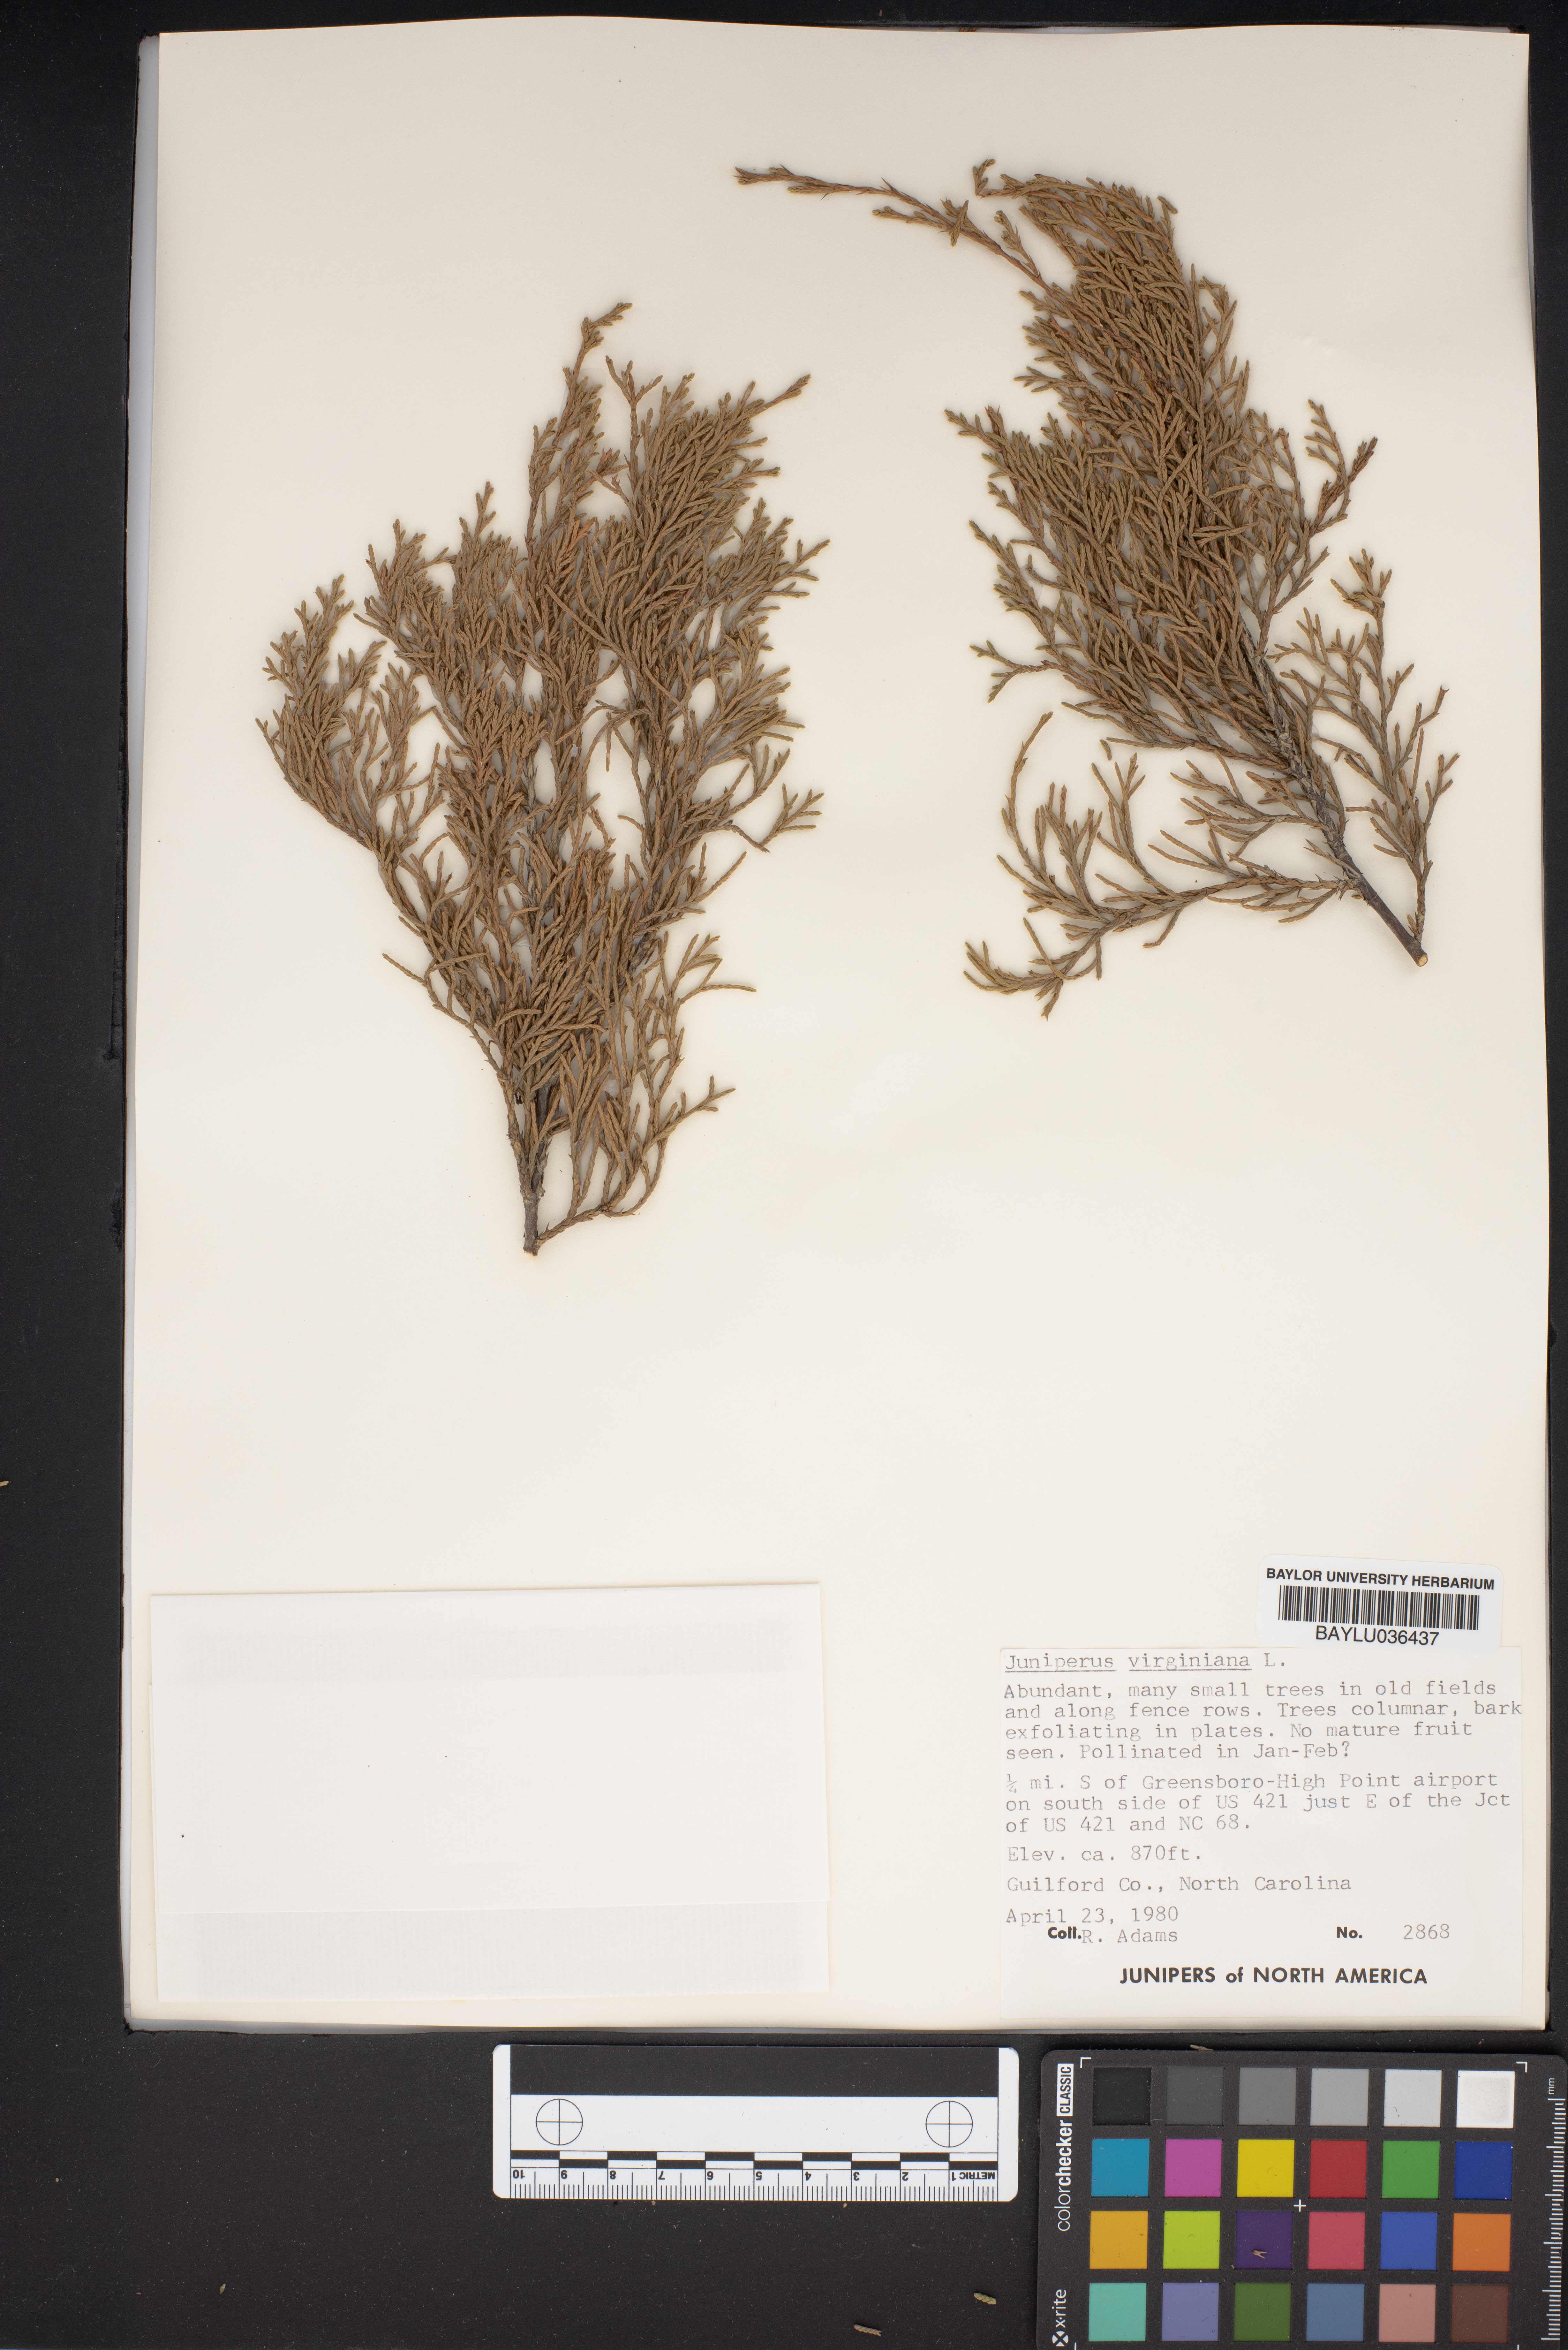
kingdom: Plantae
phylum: Tracheophyta
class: Pinopsida
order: Pinales
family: Cupressaceae
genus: Juniperus
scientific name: Juniperus virginiana
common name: Red juniper
